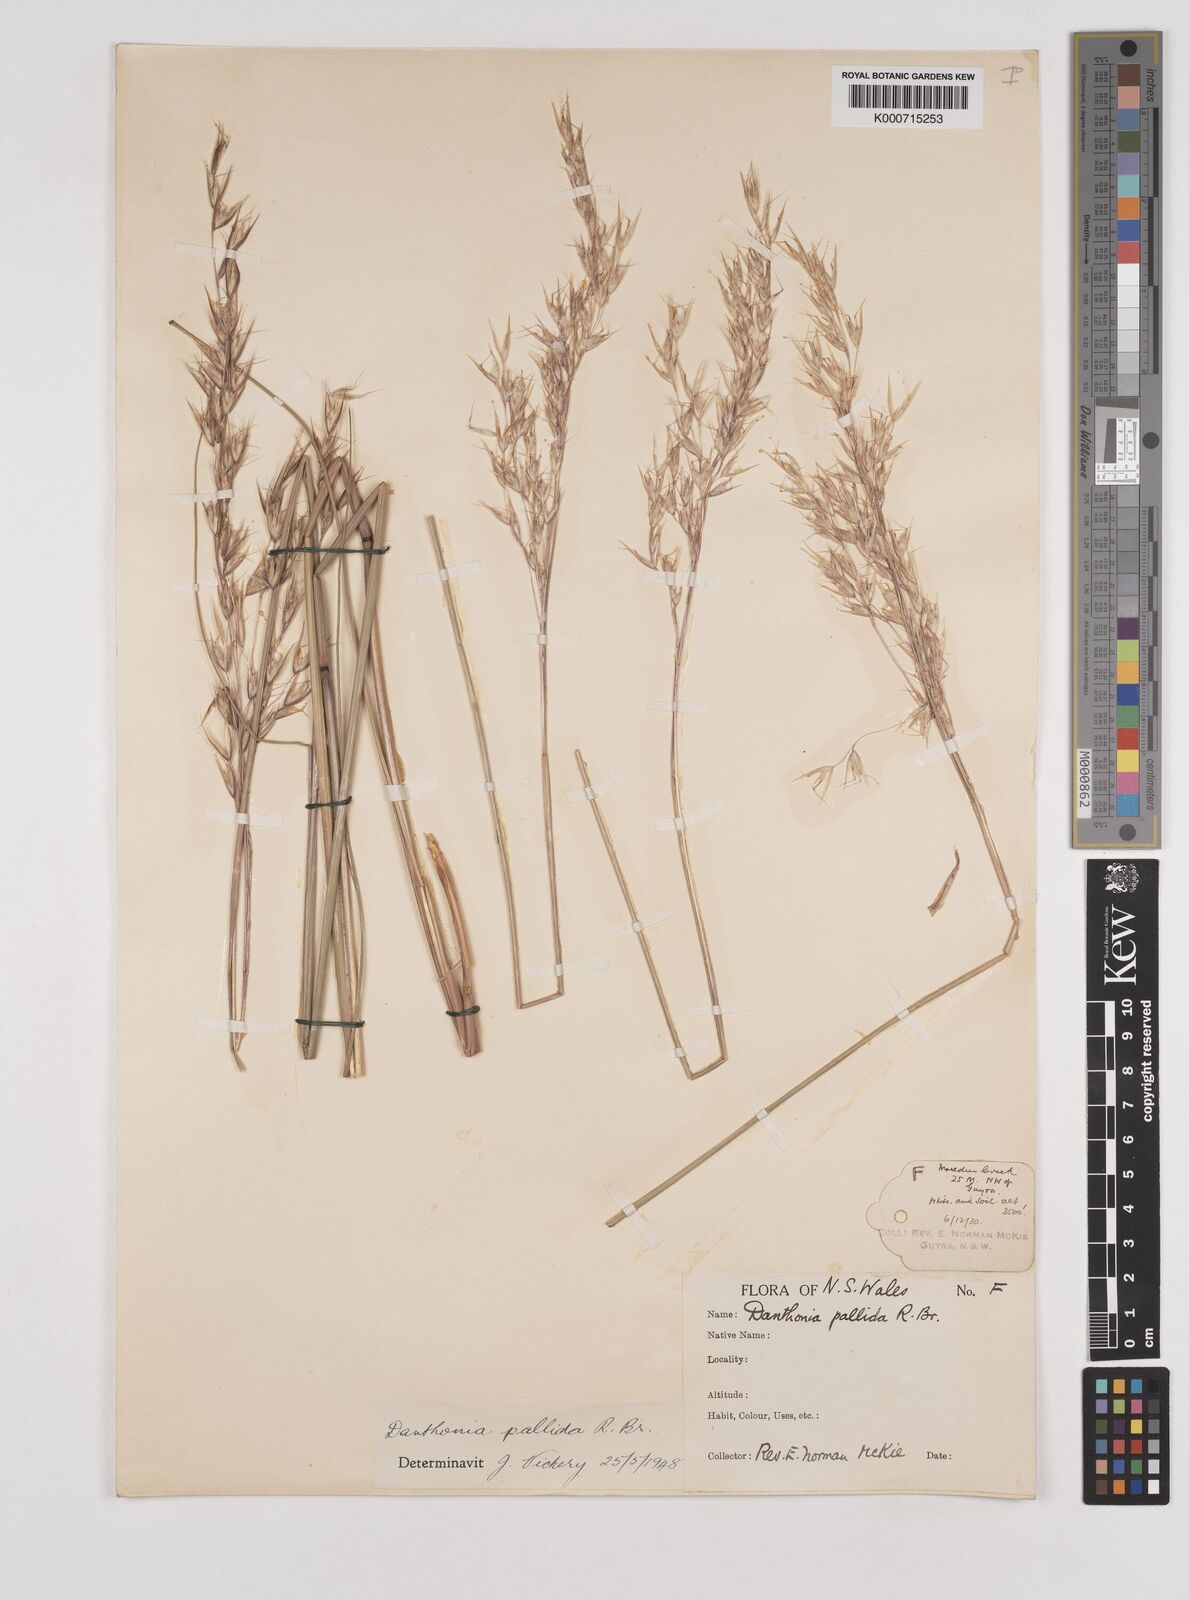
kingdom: Plantae
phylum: Tracheophyta
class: Liliopsida
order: Poales
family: Poaceae
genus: Rytidosperma
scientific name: Rytidosperma
